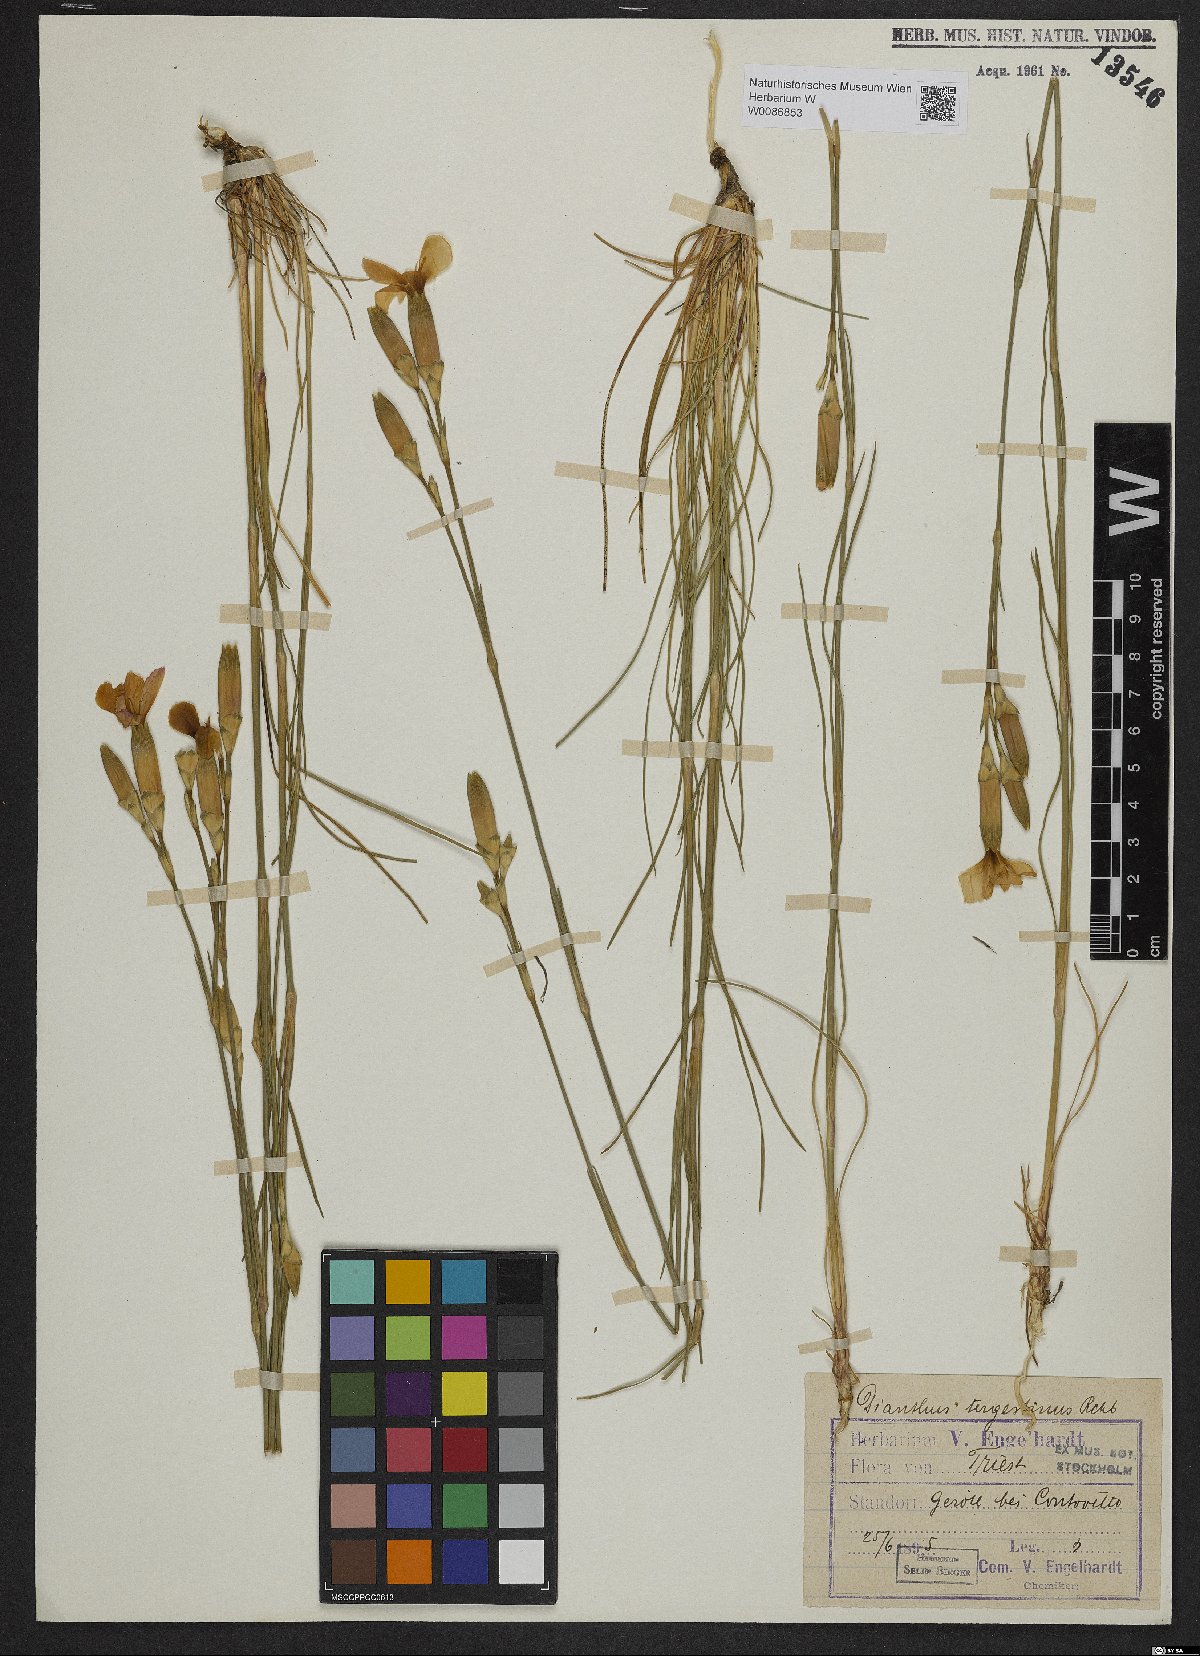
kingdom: Plantae
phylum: Tracheophyta
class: Magnoliopsida
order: Caryophyllales
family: Caryophyllaceae
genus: Dianthus
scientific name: Dianthus sylvestris
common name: Wood pink
